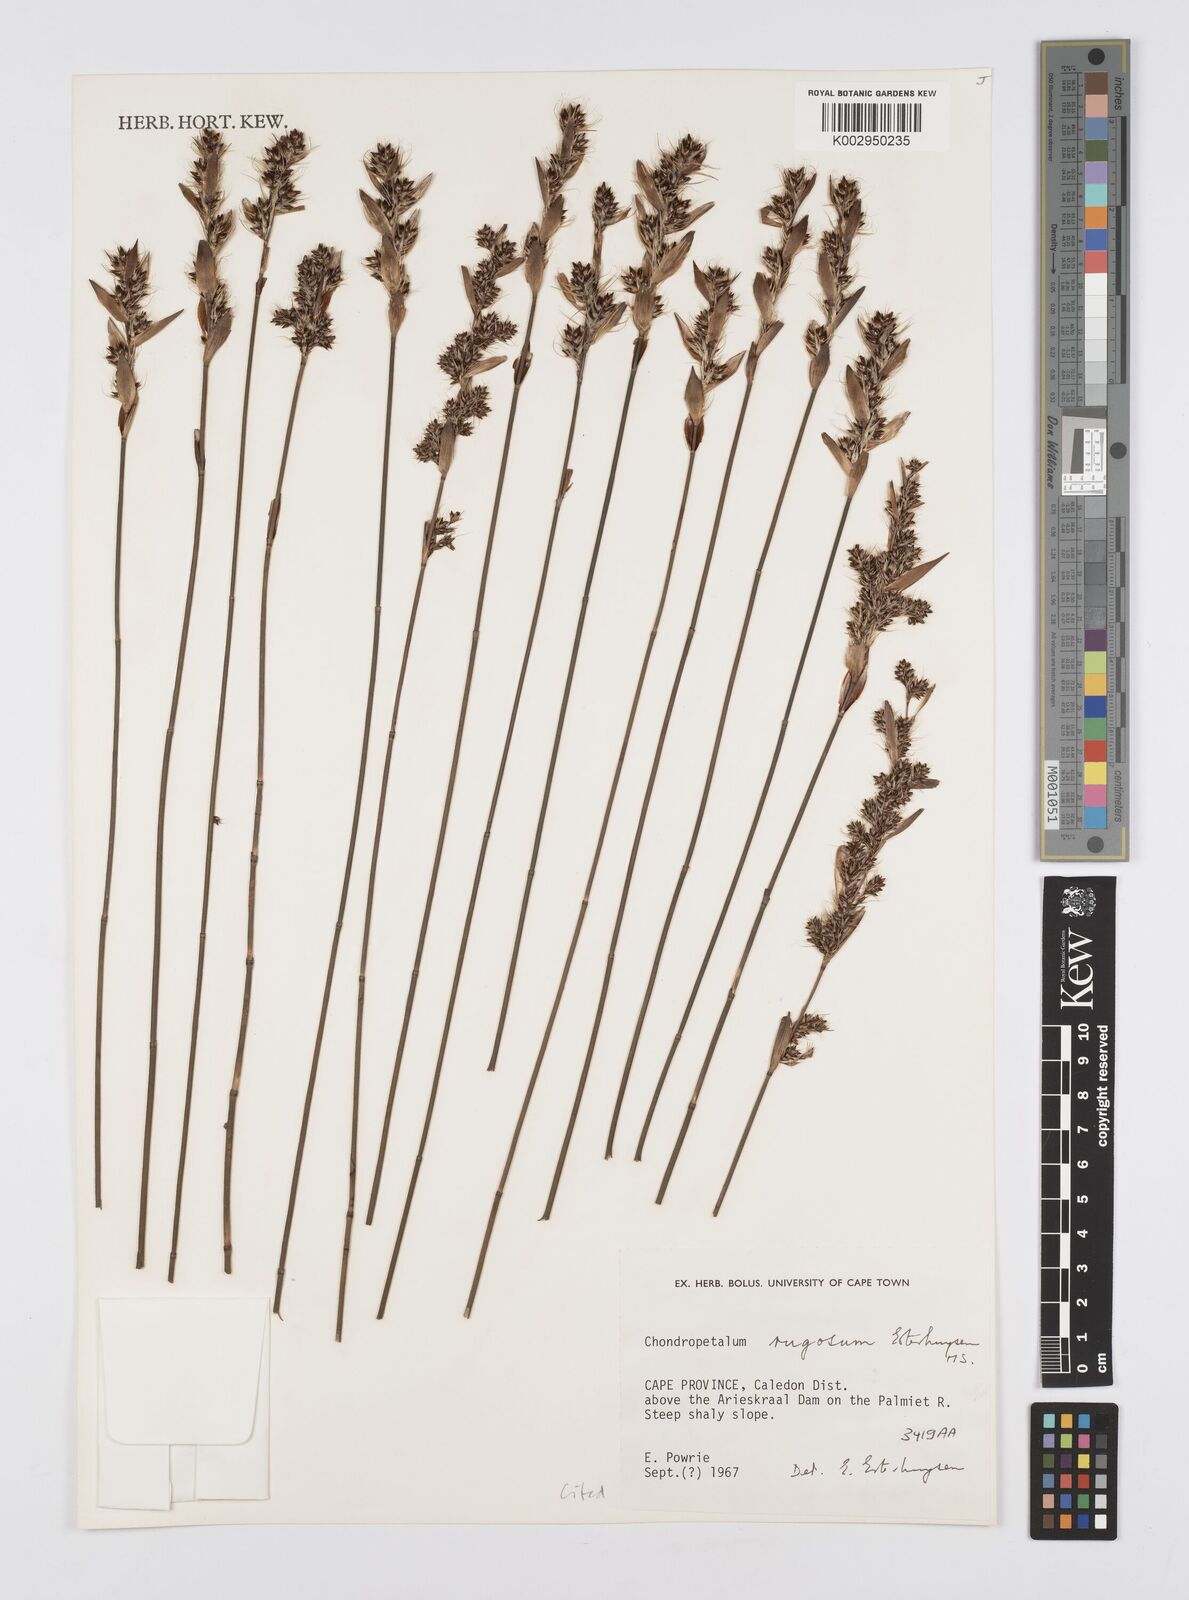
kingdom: Plantae
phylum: Tracheophyta
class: Liliopsida
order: Poales
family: Restionaceae
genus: Askidiosperma
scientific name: Askidiosperma rugosum
